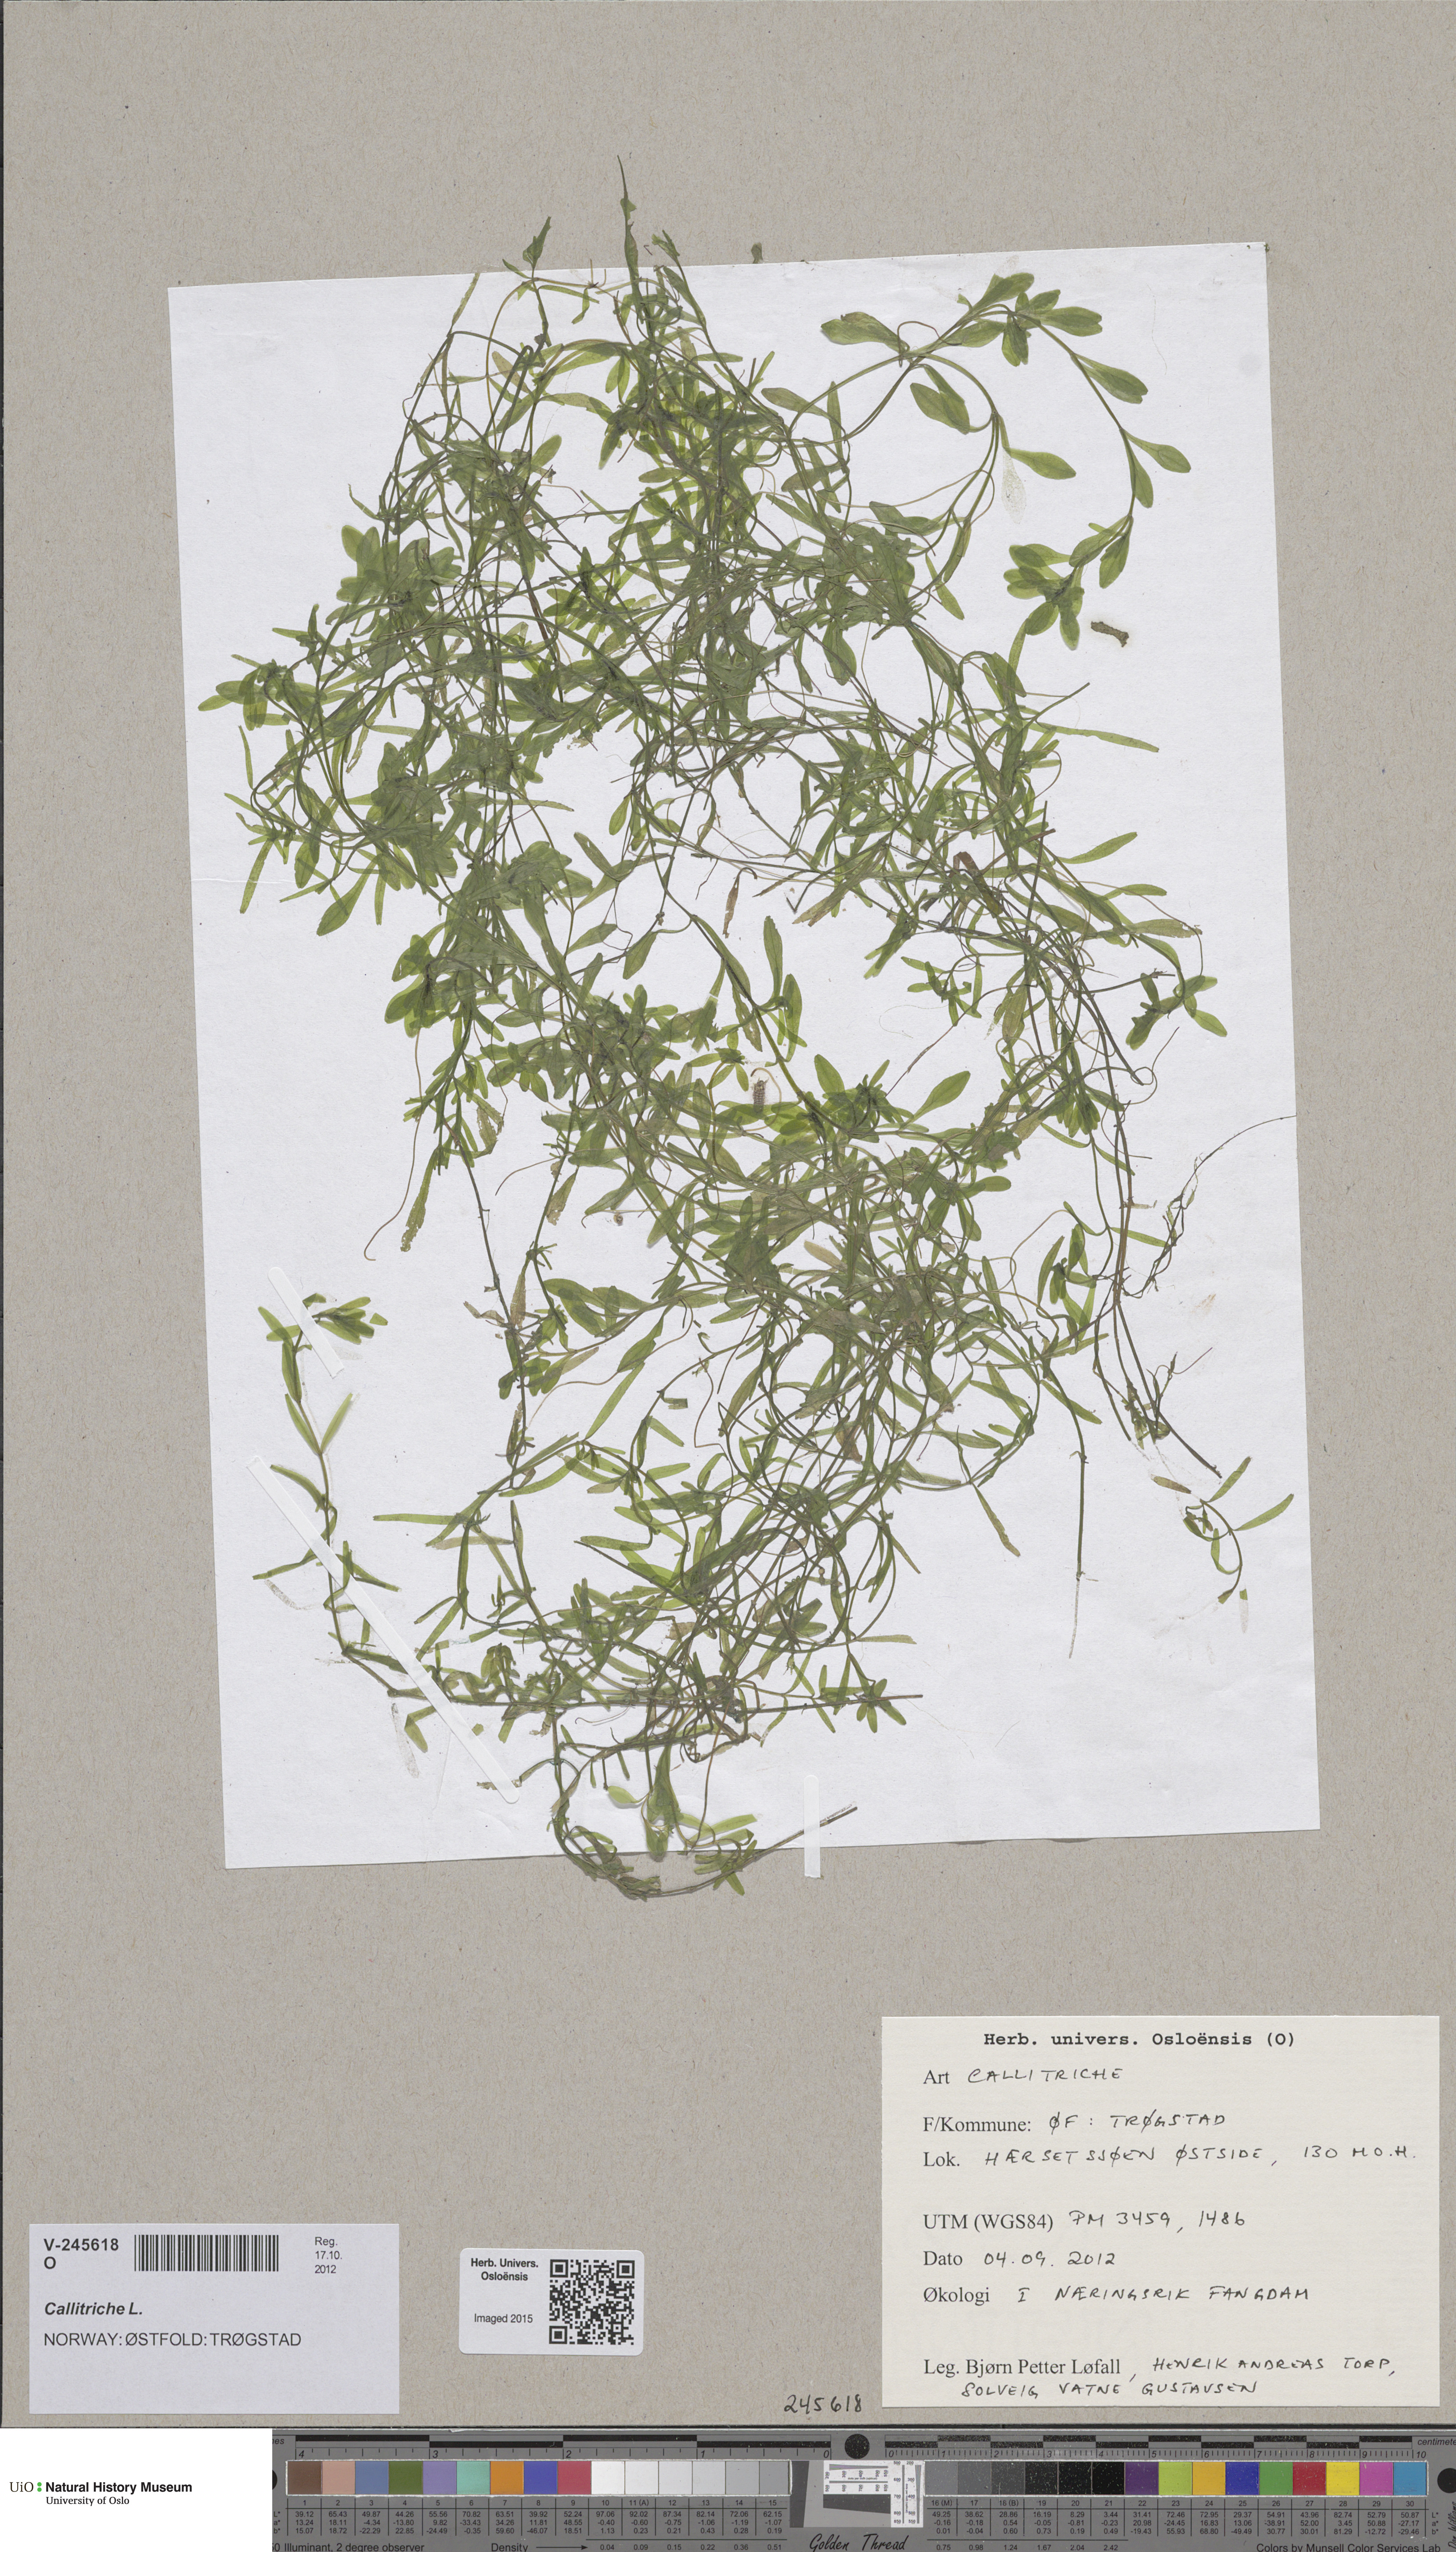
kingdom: Plantae
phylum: Tracheophyta
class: Magnoliopsida
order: Lamiales
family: Plantaginaceae
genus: Callitriche
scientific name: Callitriche
